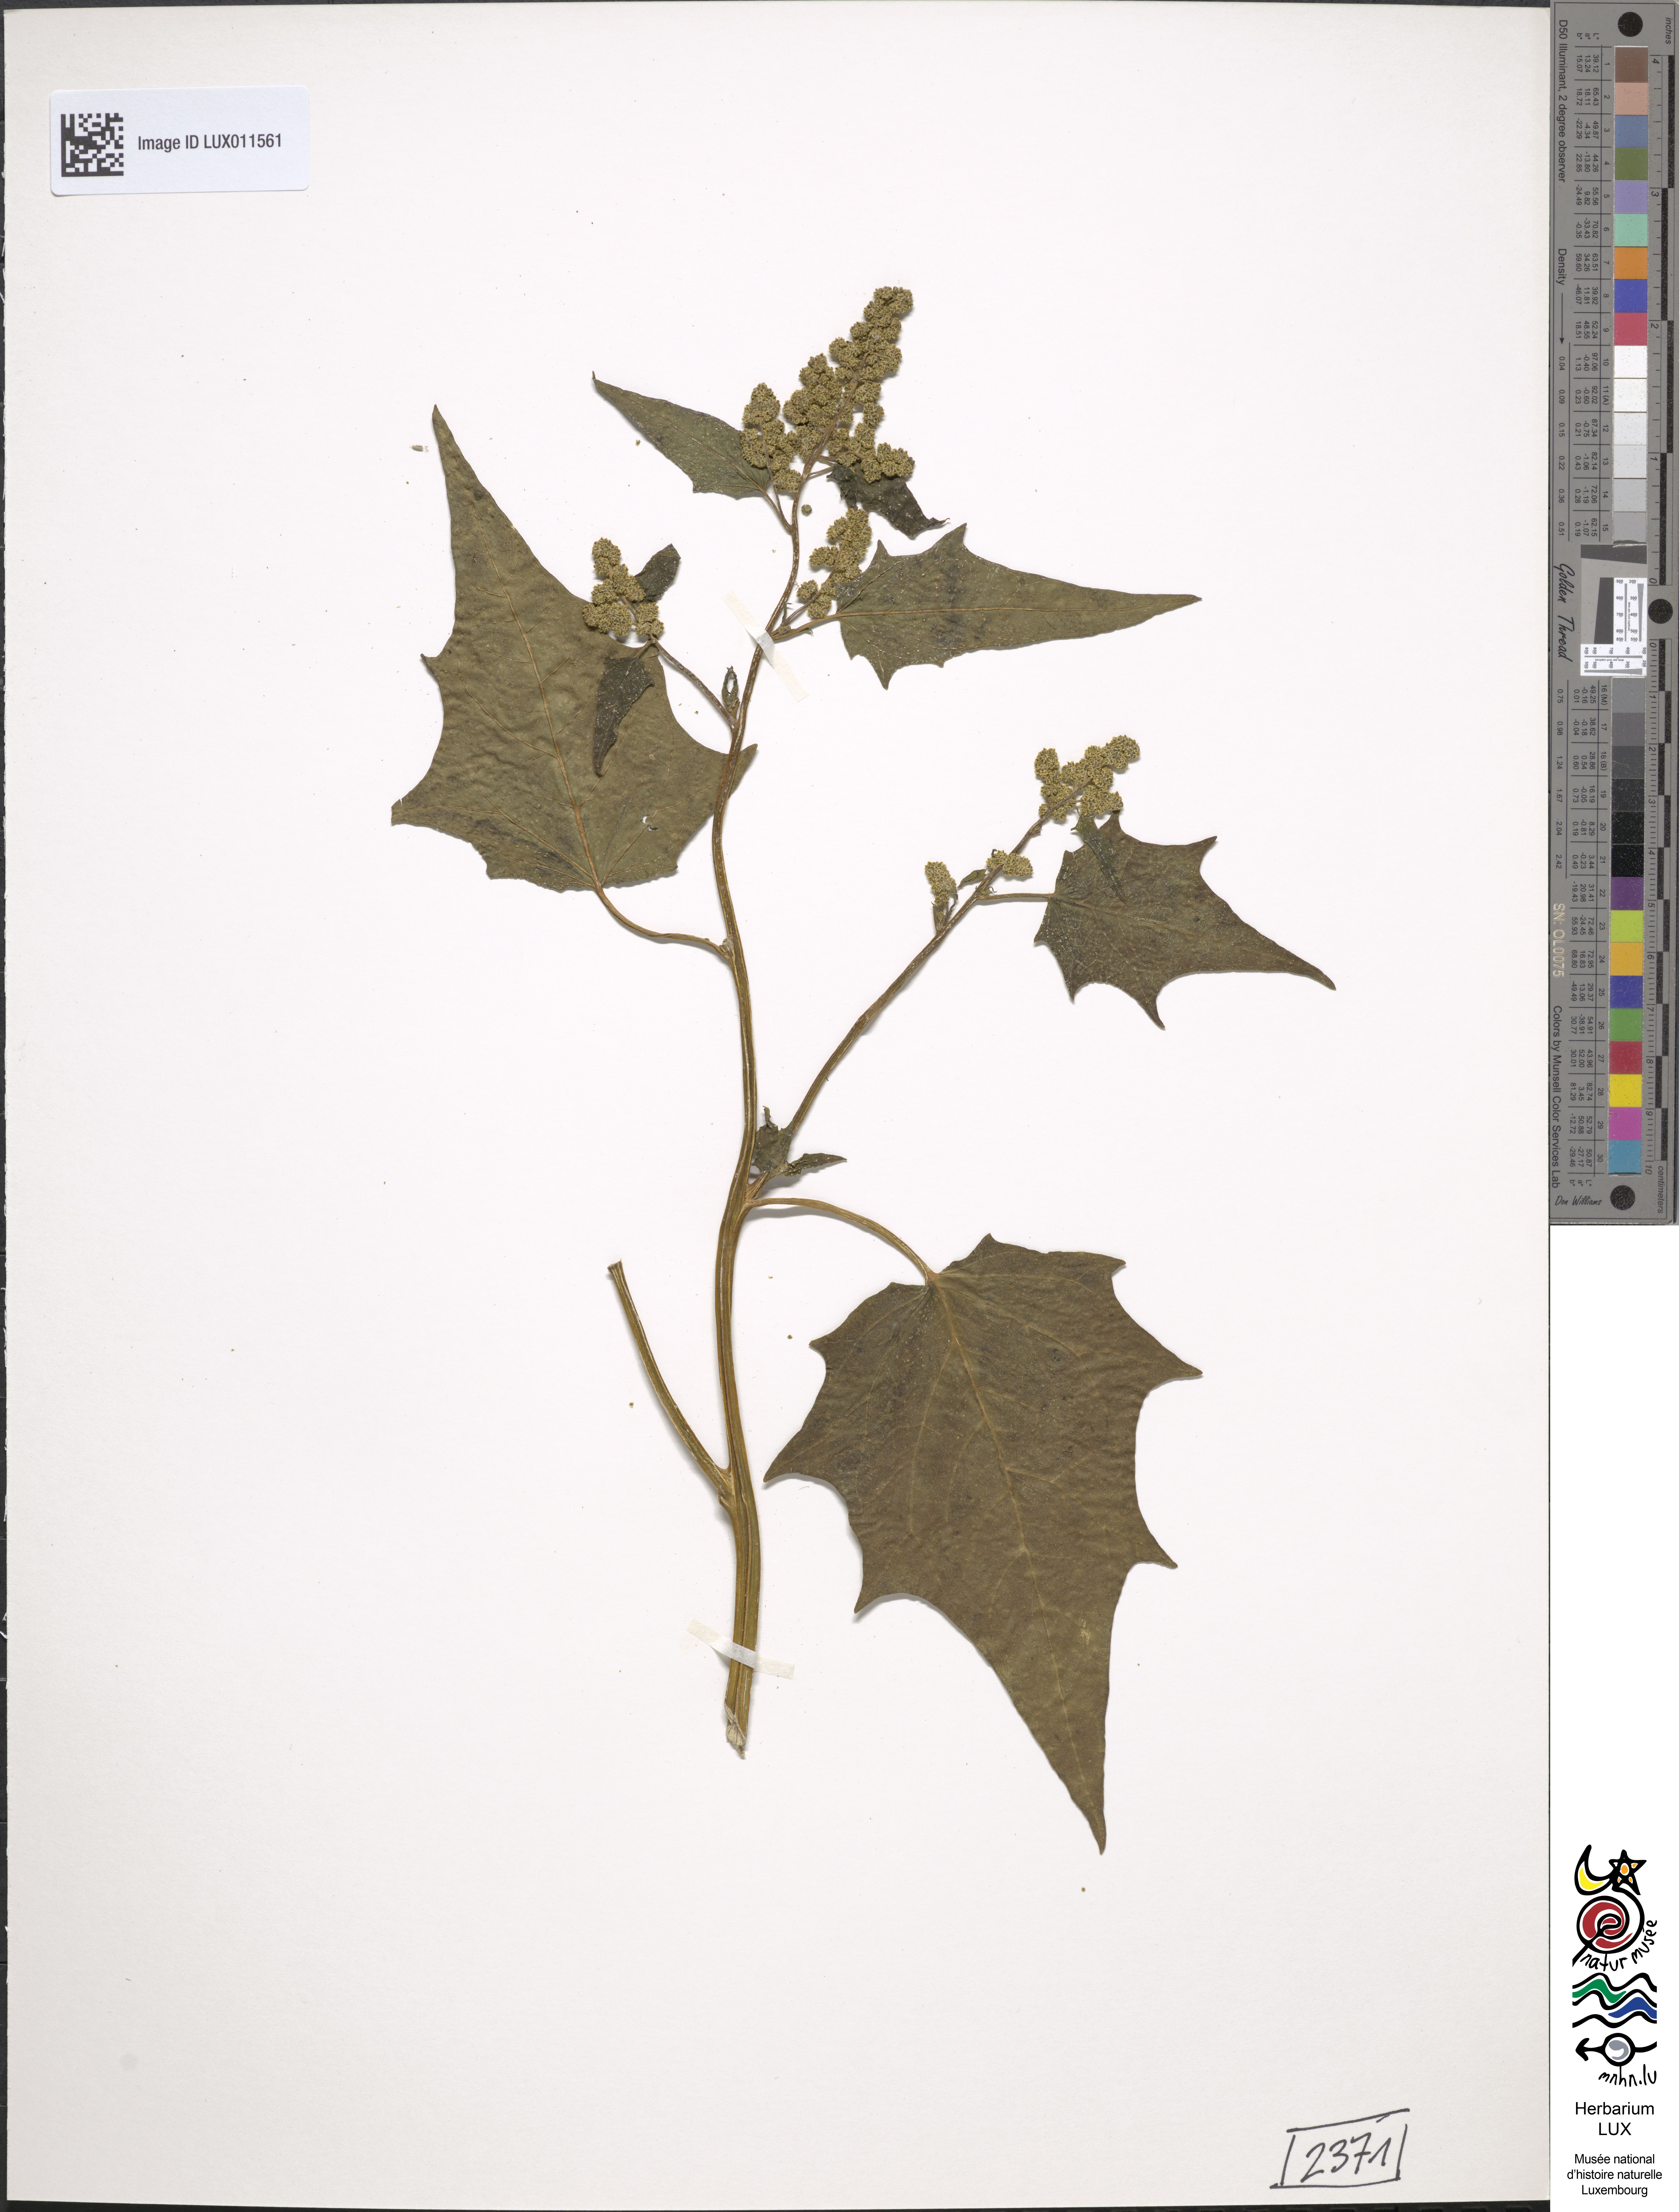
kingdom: Plantae
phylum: Tracheophyta
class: Magnoliopsida
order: Caryophyllales
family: Amaranthaceae
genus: Chenopodiastrum
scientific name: Chenopodiastrum hybridum
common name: Mapleleaf goosefoot
